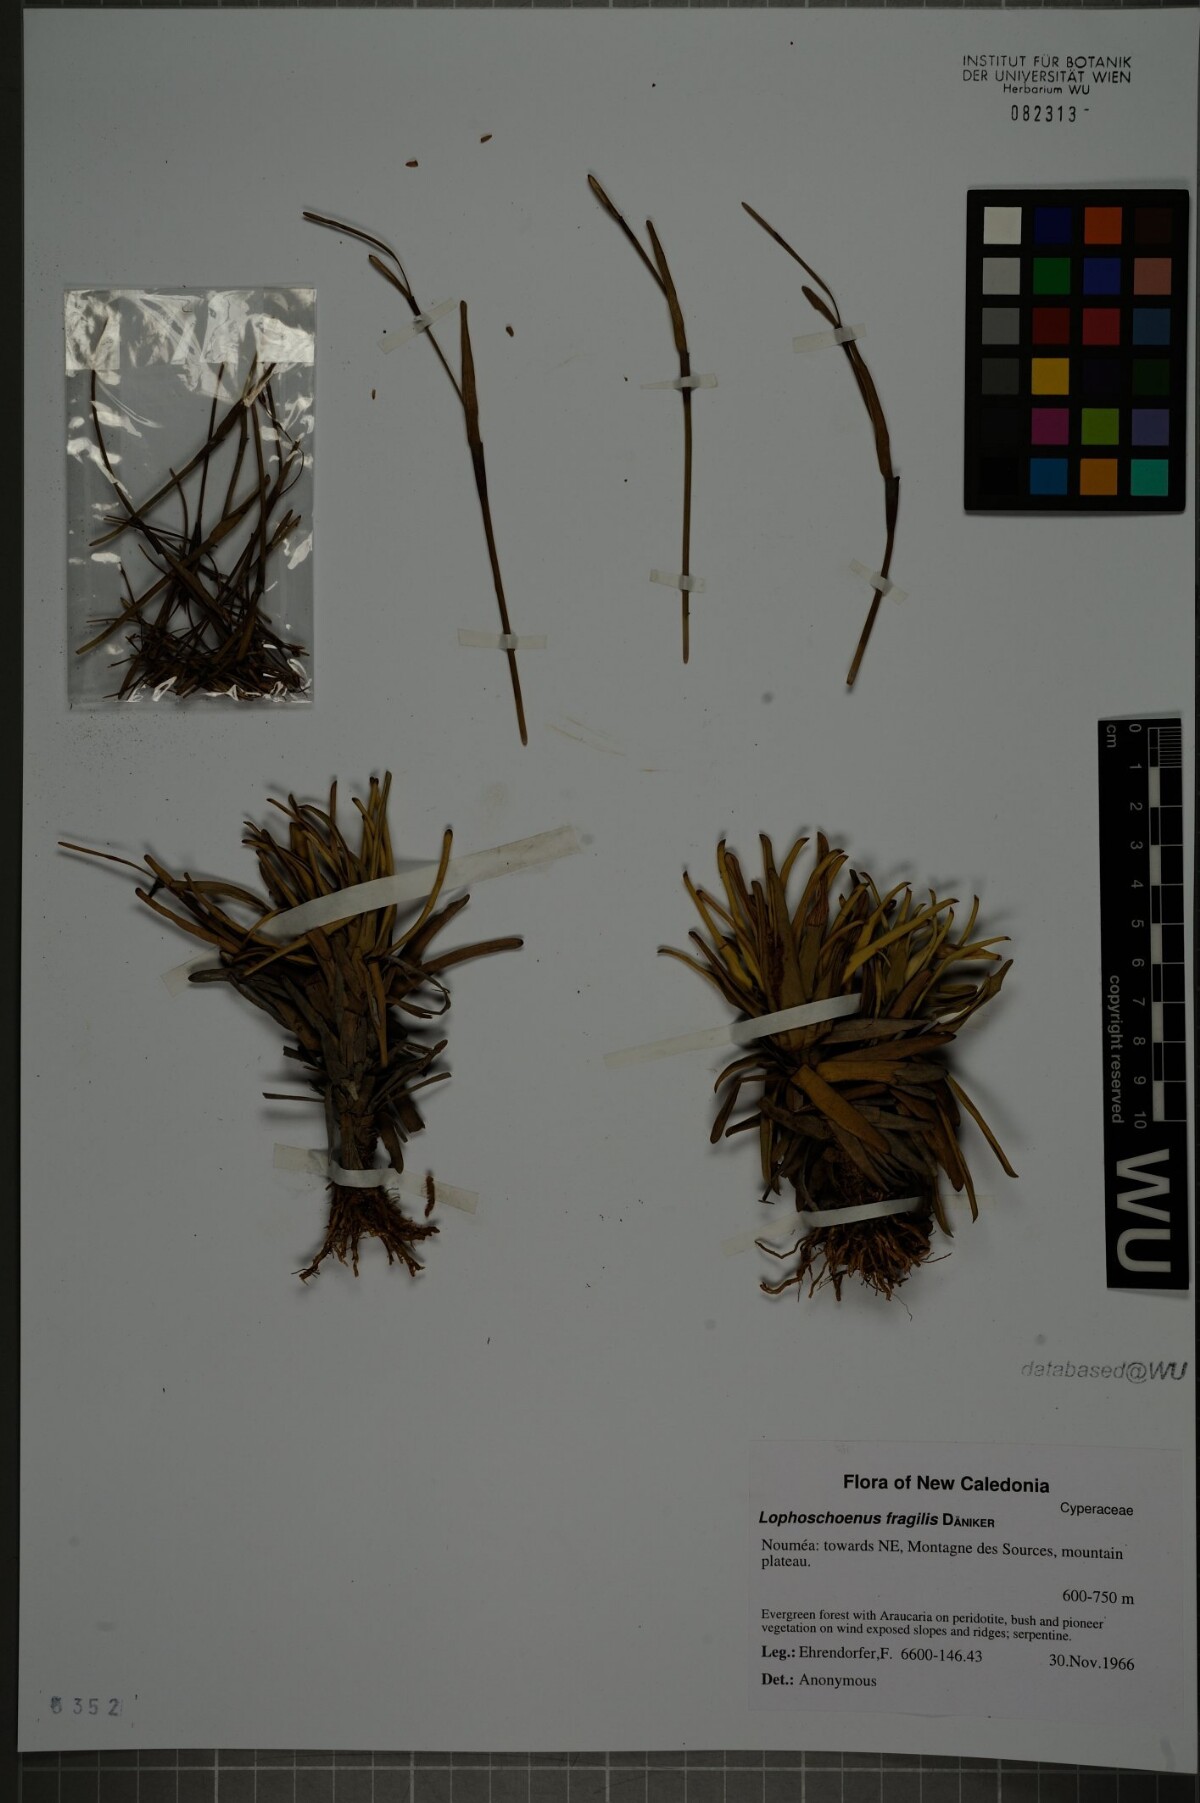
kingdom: Plantae
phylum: Tracheophyta
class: Liliopsida
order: Poales
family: Cyperaceae
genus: Chamaedendron
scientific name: Chamaedendron fragilis
